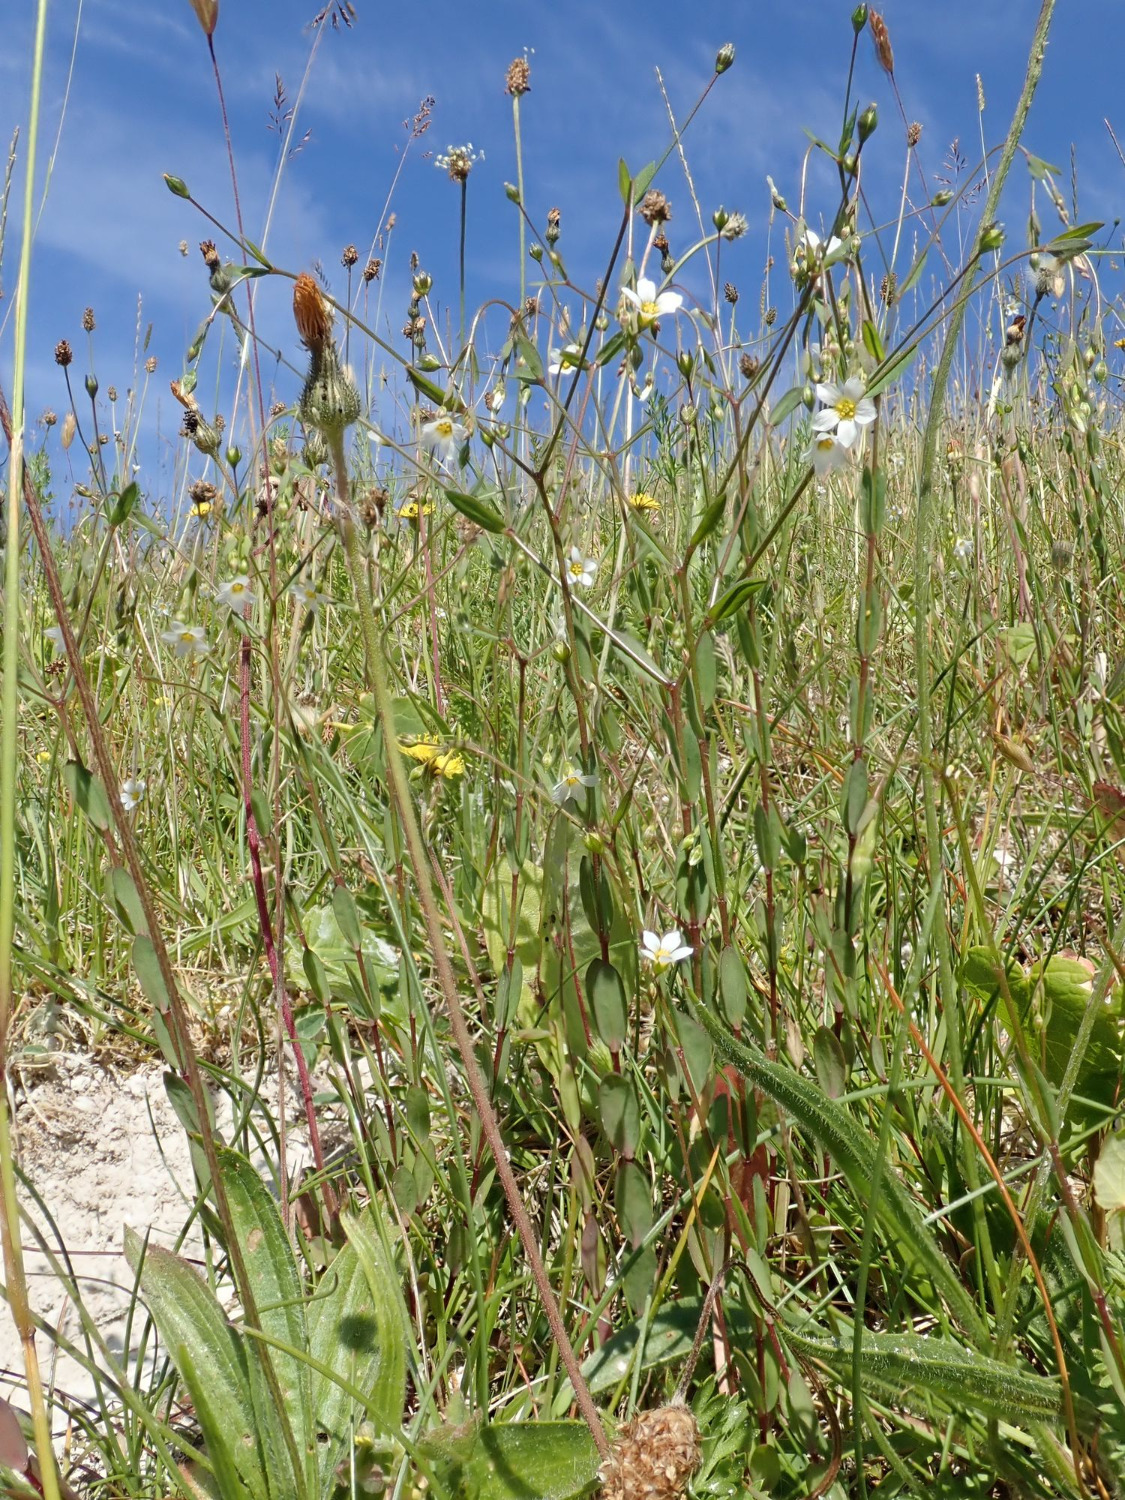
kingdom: Plantae
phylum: Tracheophyta
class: Magnoliopsida
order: Malpighiales
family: Linaceae
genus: Linum
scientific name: Linum catharticum
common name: Vild hør
